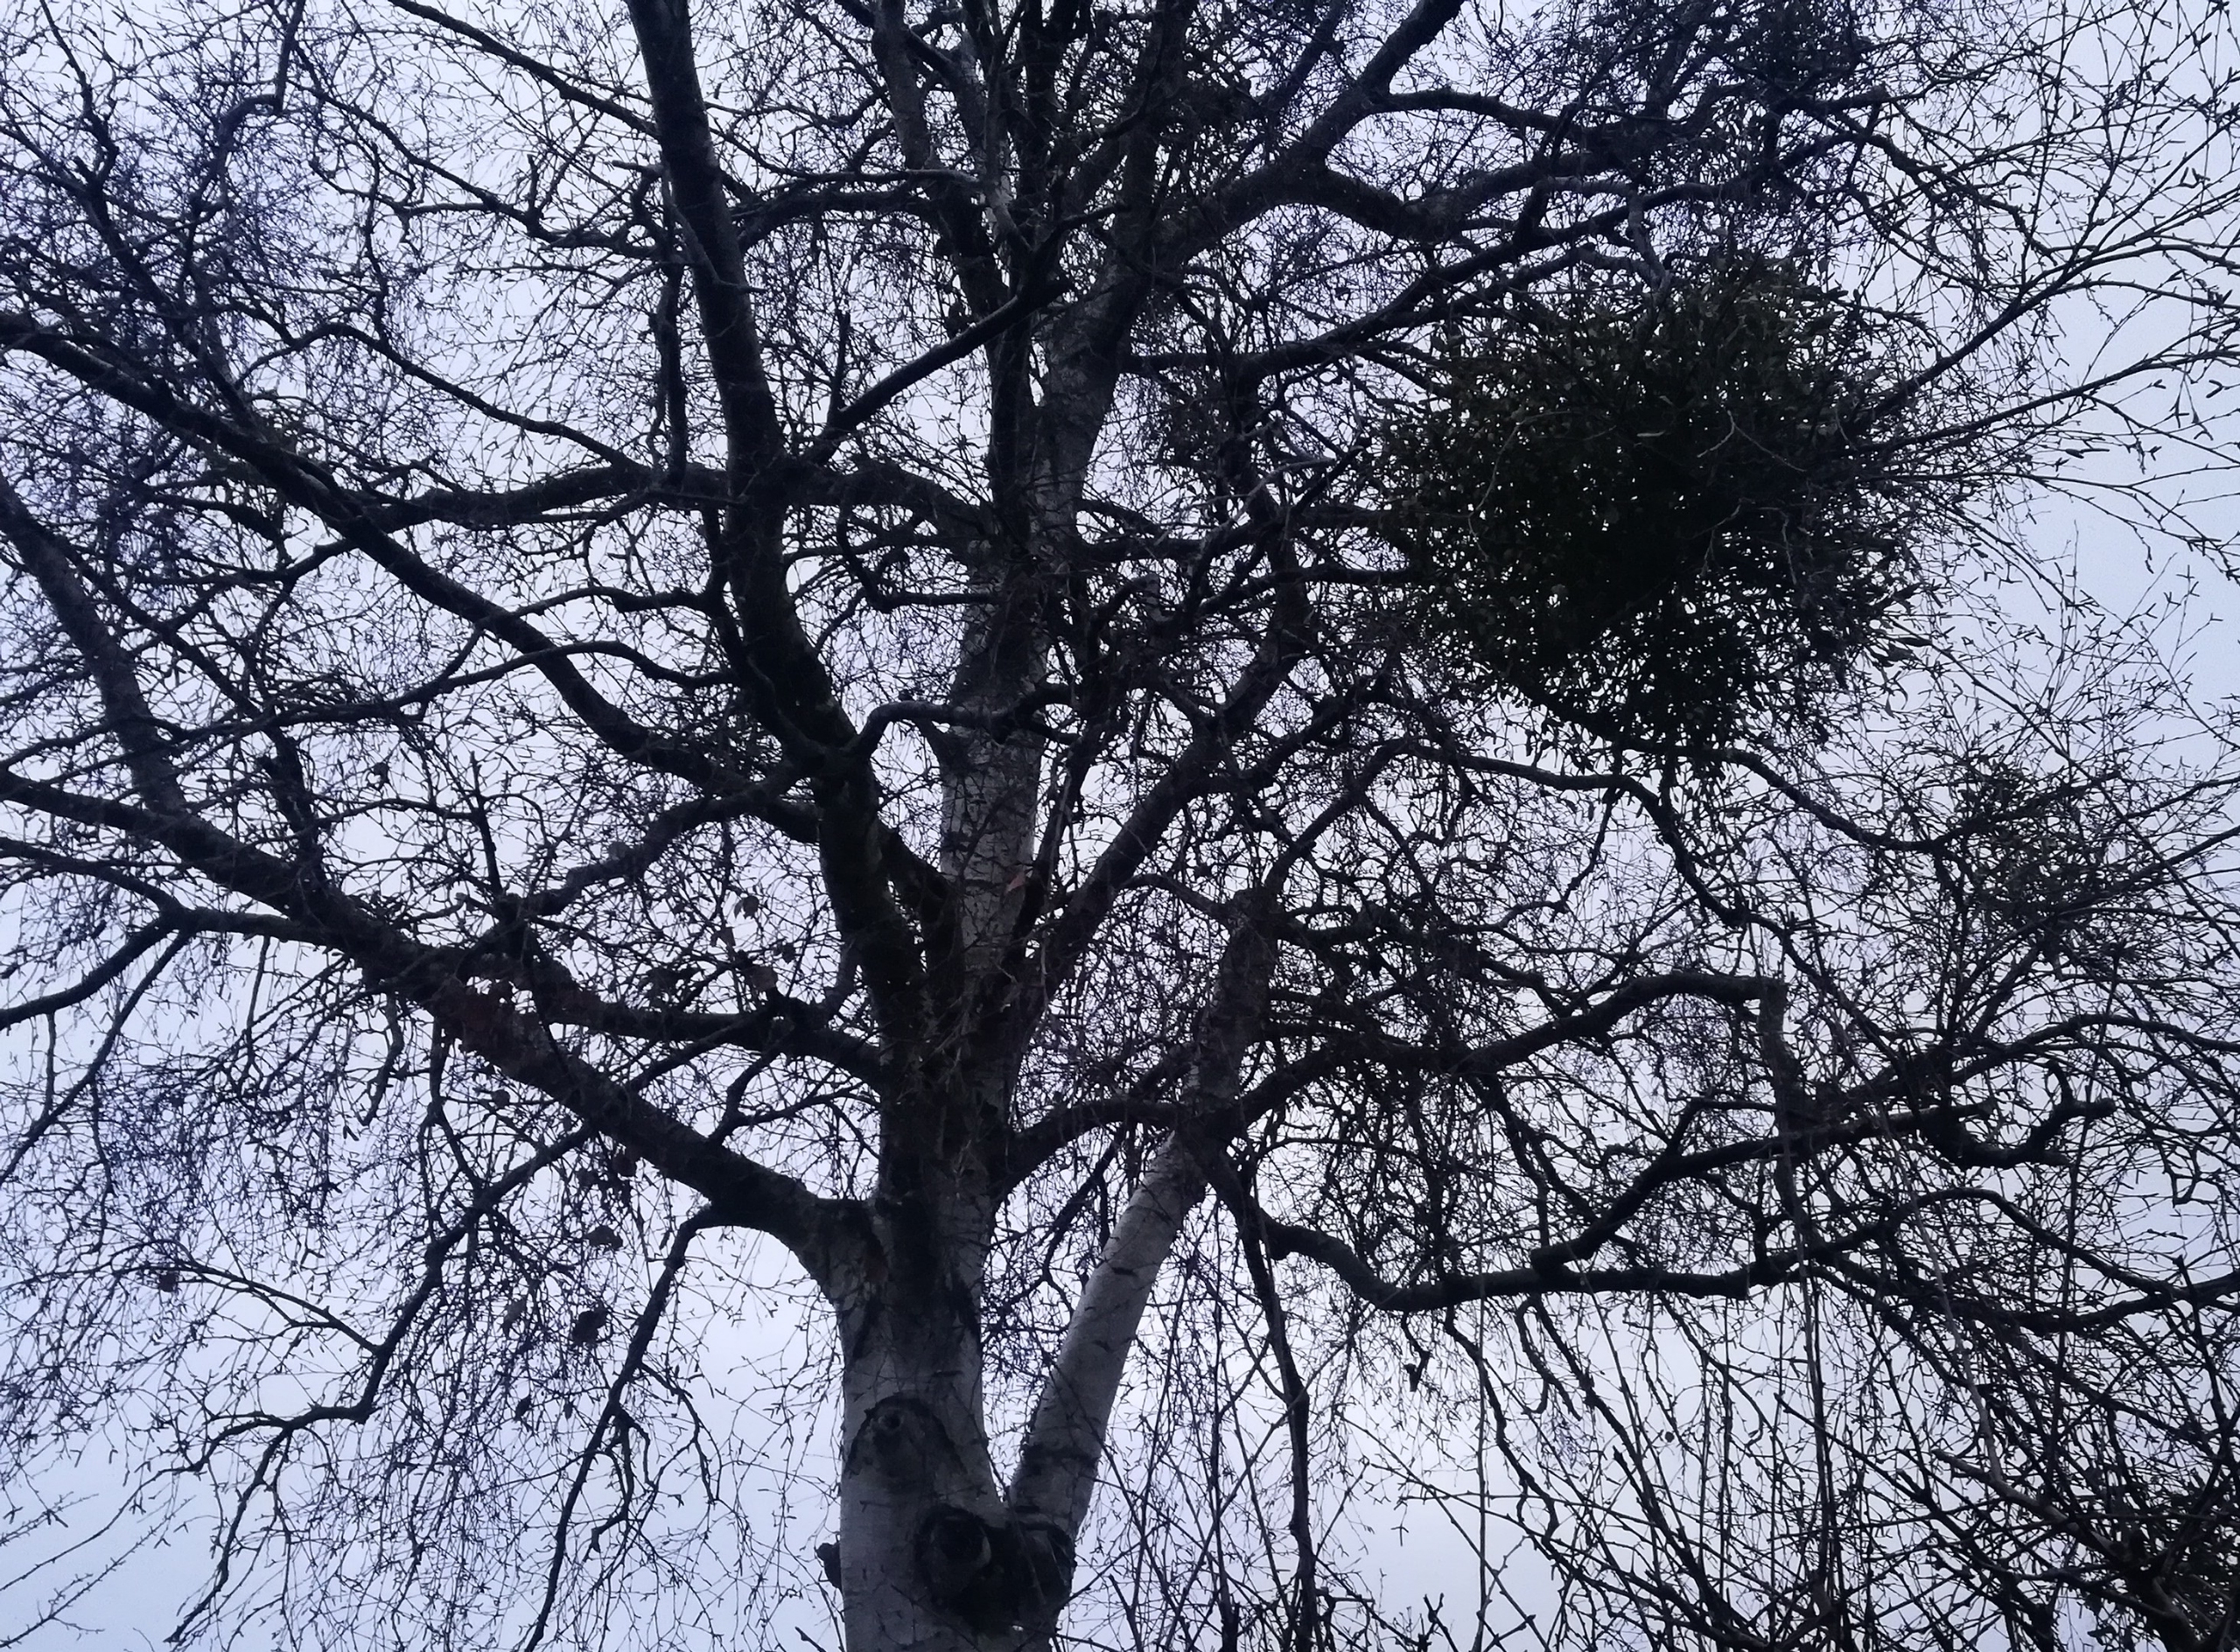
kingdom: Plantae
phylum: Tracheophyta
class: Magnoliopsida
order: Santalales
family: Viscaceae
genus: Viscum
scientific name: Viscum album
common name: Mistelten
